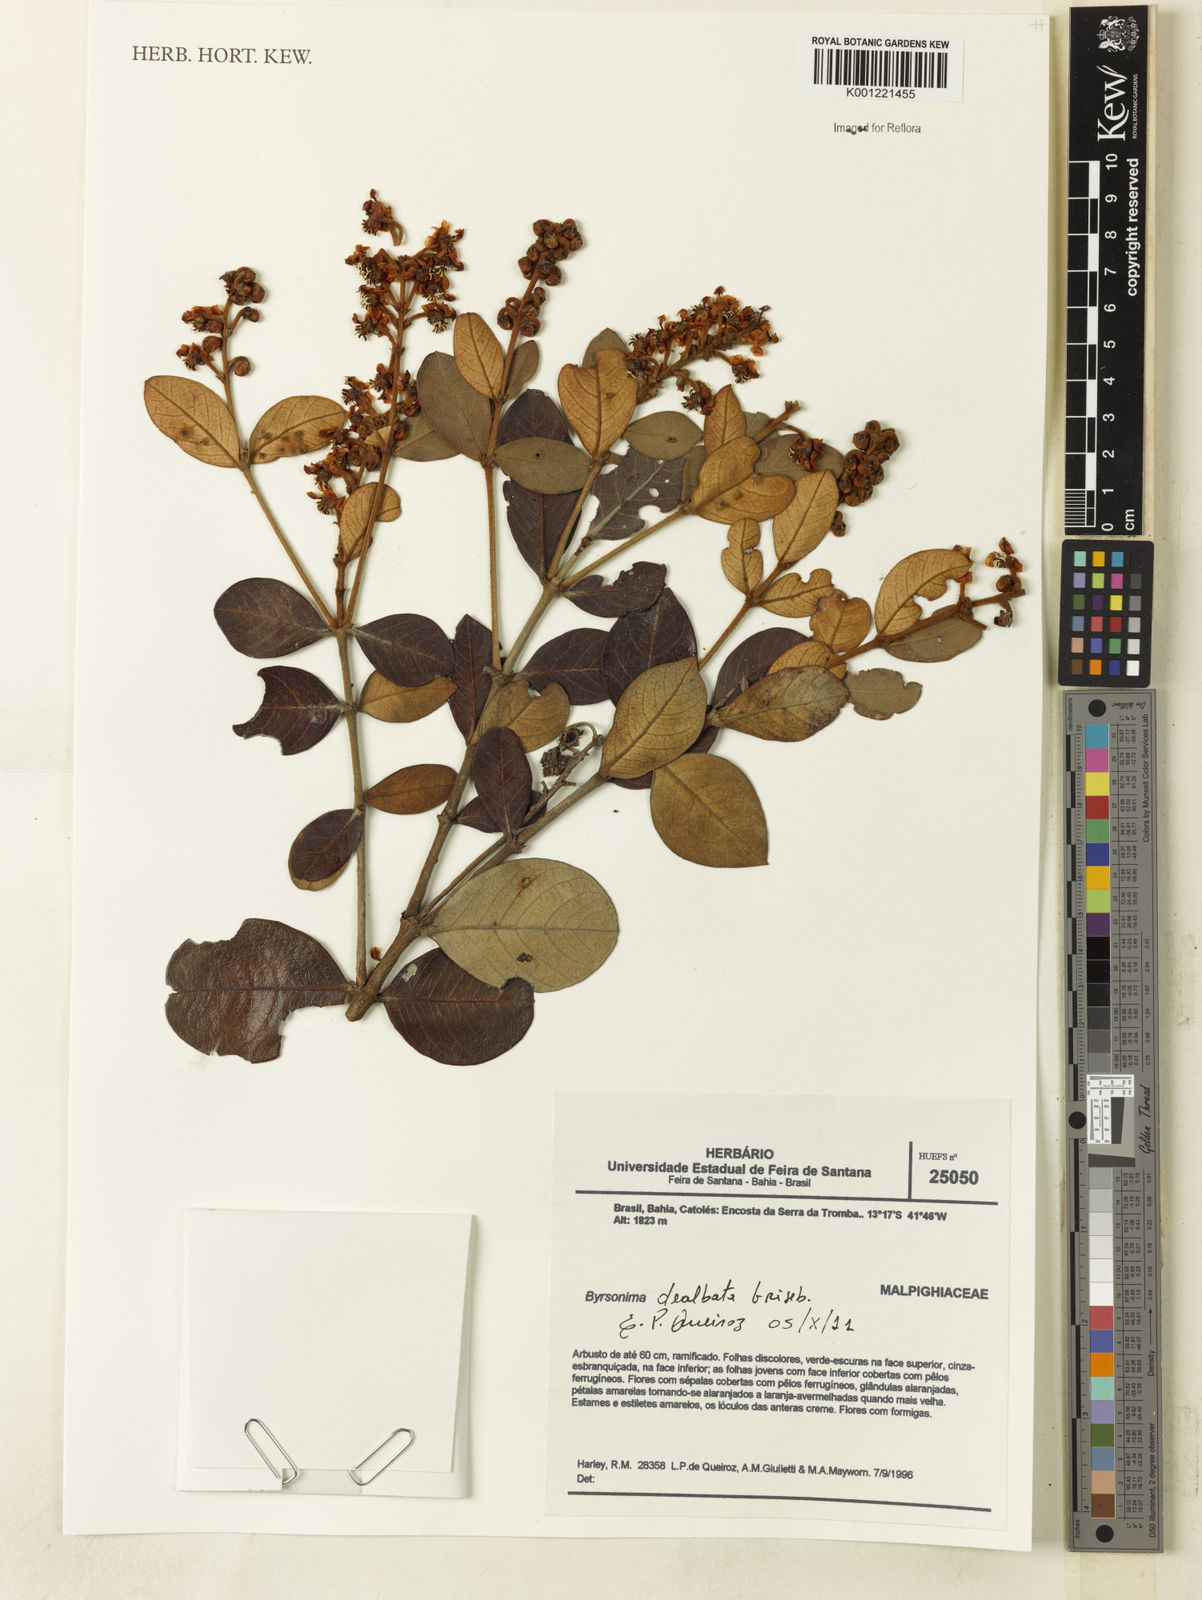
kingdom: Plantae
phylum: Tracheophyta
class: Magnoliopsida
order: Malpighiales
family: Malpighiaceae
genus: Byrsonima
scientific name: Byrsonima dealbata
